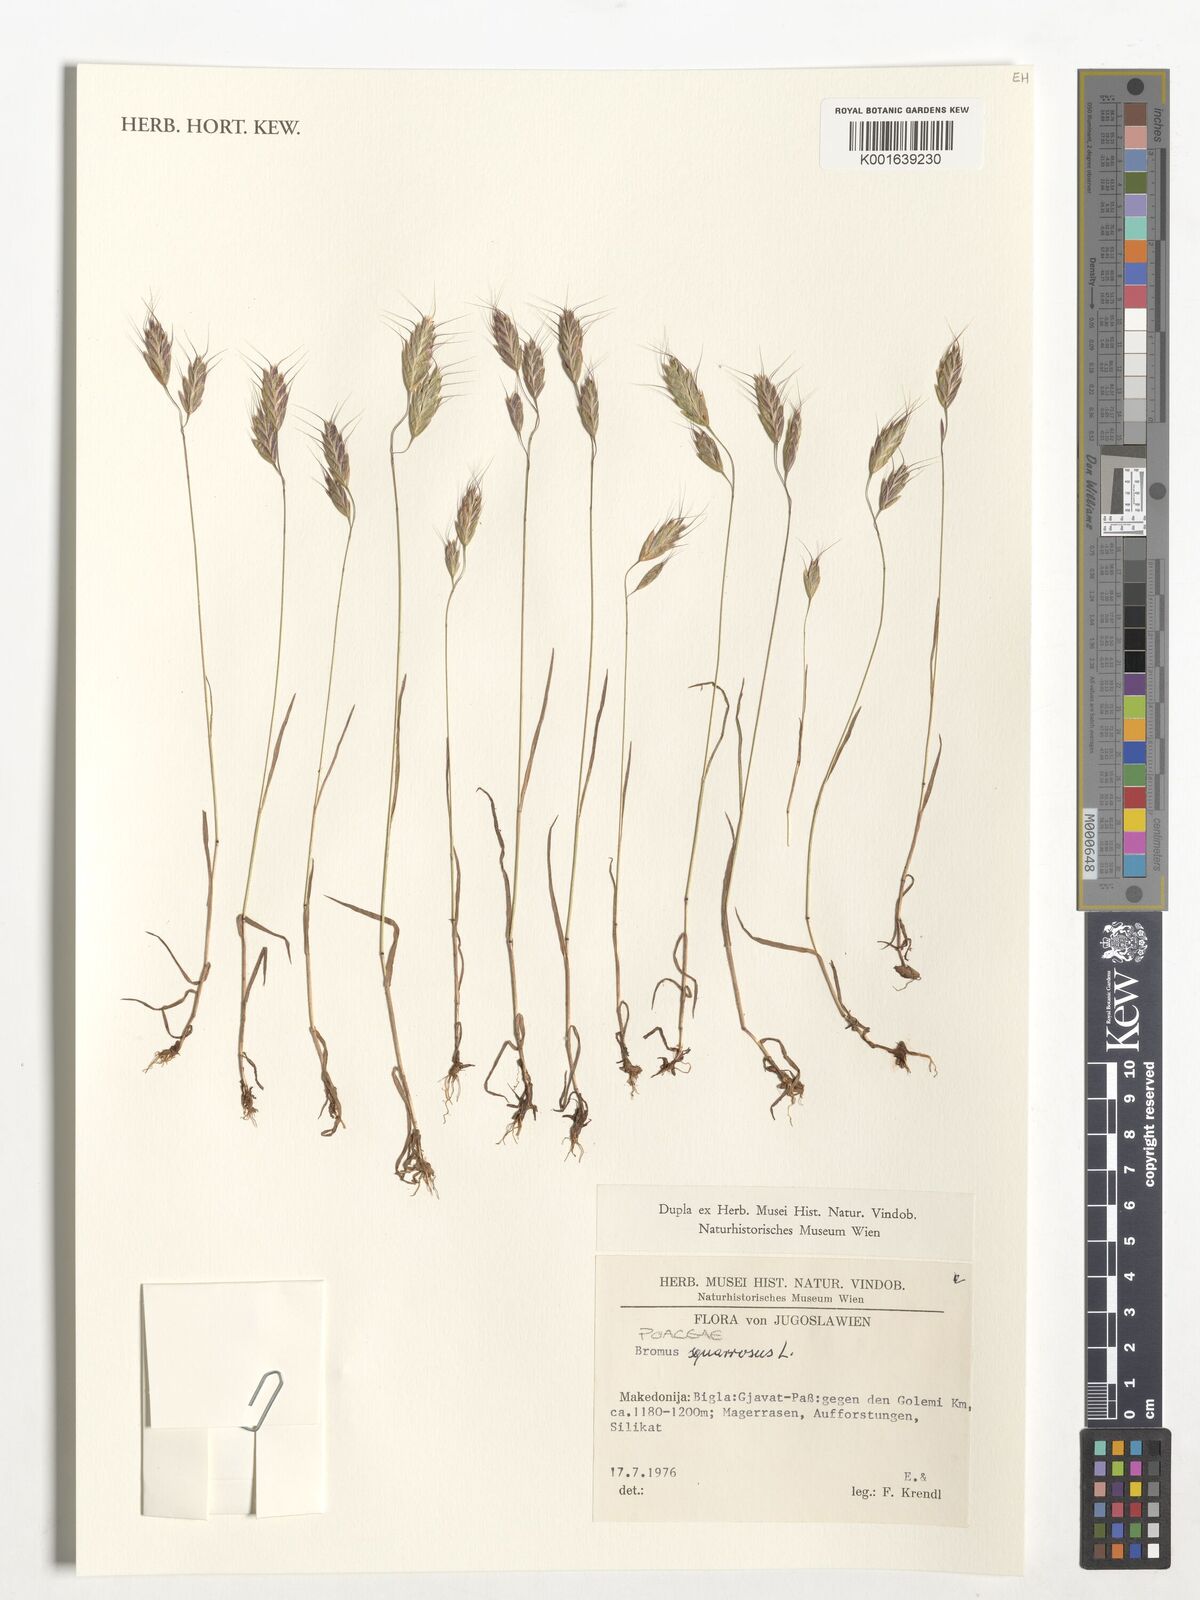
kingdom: Plantae
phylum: Tracheophyta
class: Liliopsida
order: Poales
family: Poaceae
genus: Bromus
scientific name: Bromus squarrosus
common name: Corn brome
